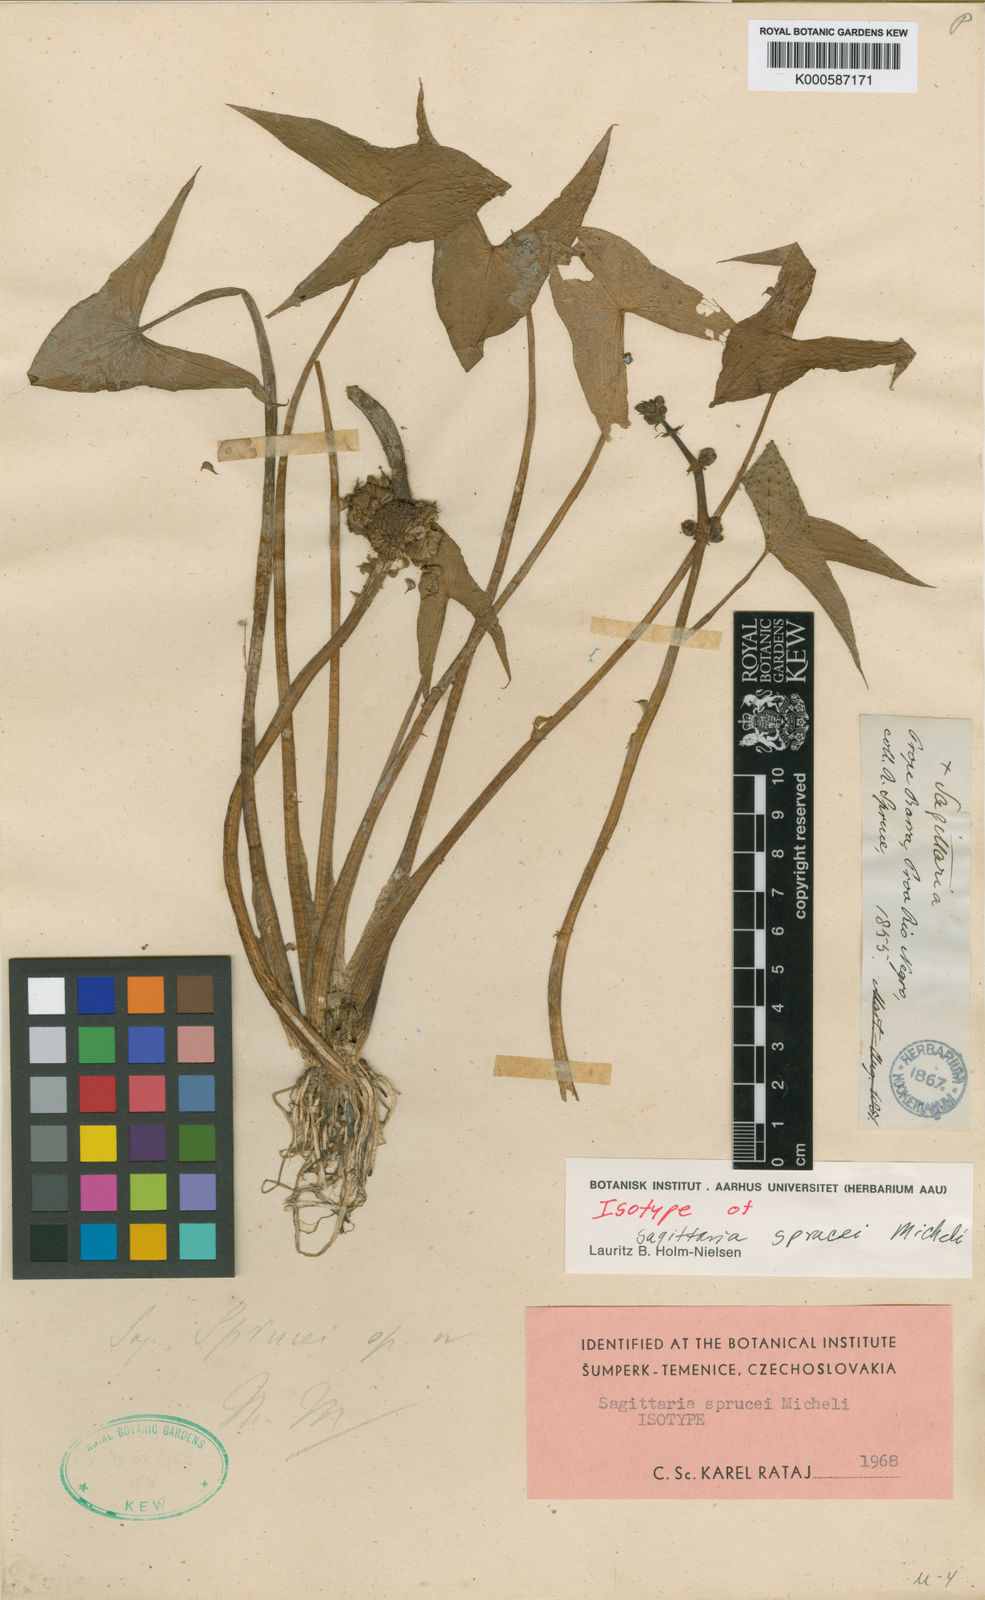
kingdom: Plantae
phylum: Tracheophyta
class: Liliopsida
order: Alismatales
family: Alismataceae
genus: Sagittaria
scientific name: Sagittaria sprucei
